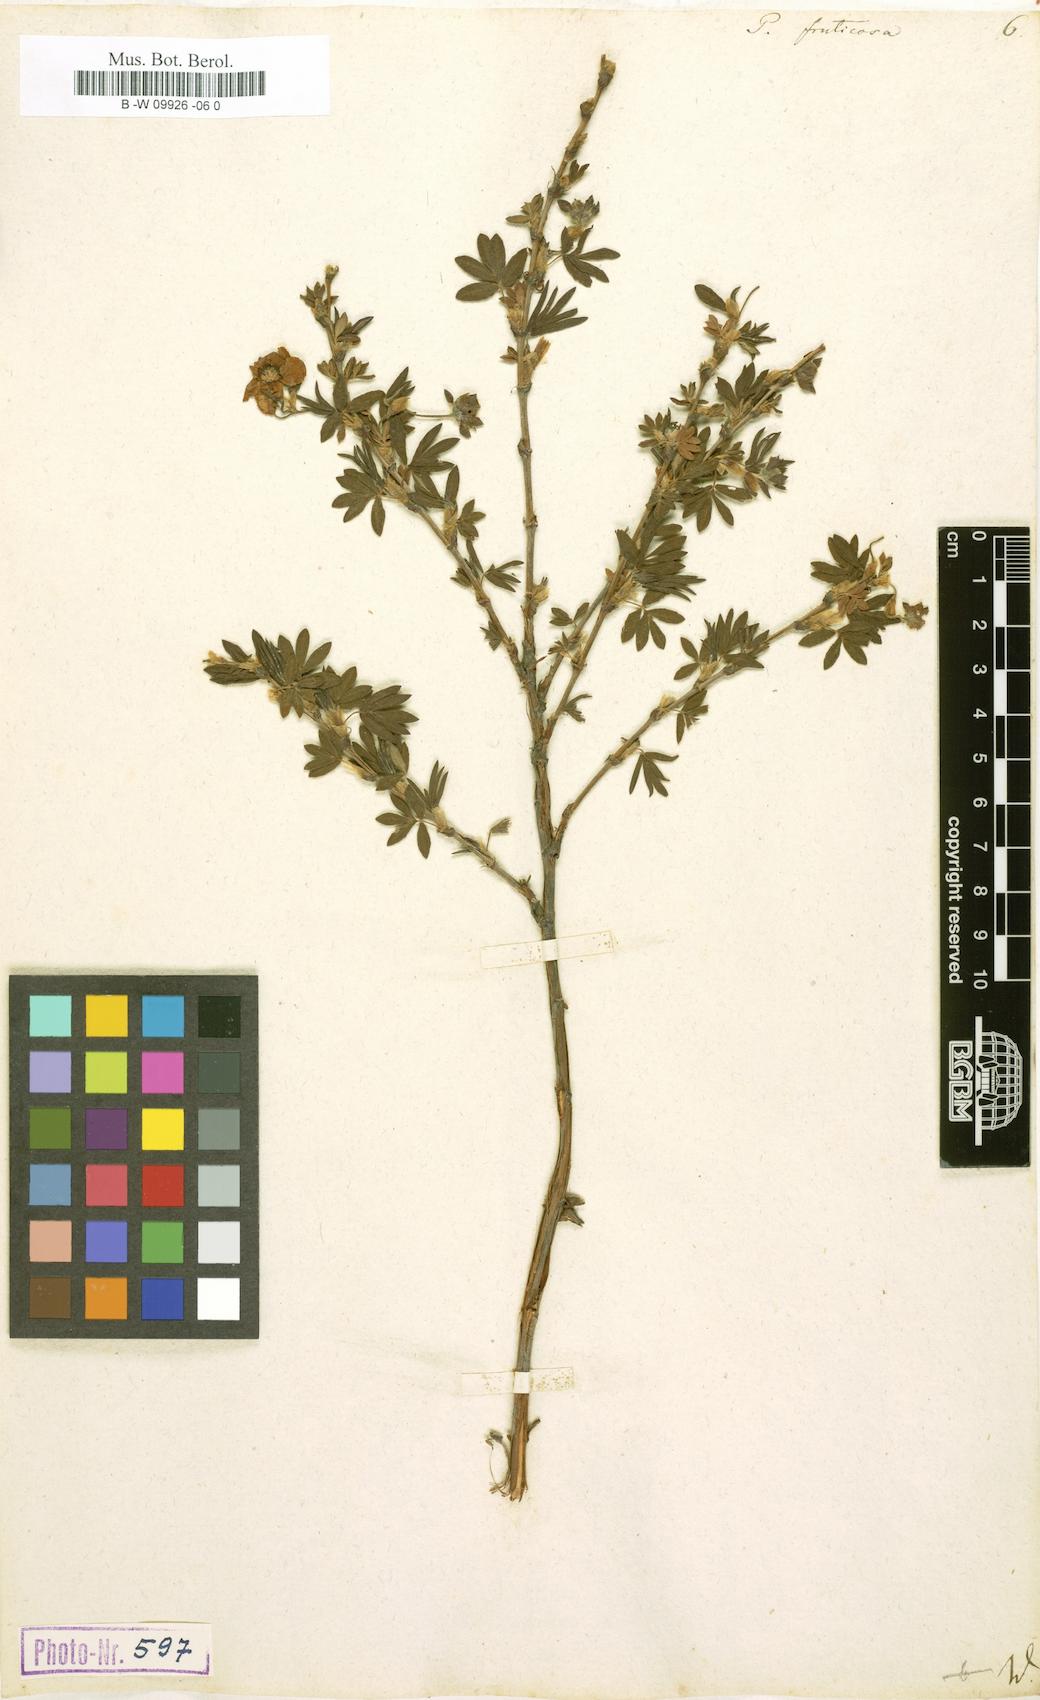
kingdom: Plantae
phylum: Tracheophyta
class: Magnoliopsida
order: Rosales
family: Rosaceae
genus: Dasiphora
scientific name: Dasiphora fruticosa
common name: Shrubby cinquefoil
